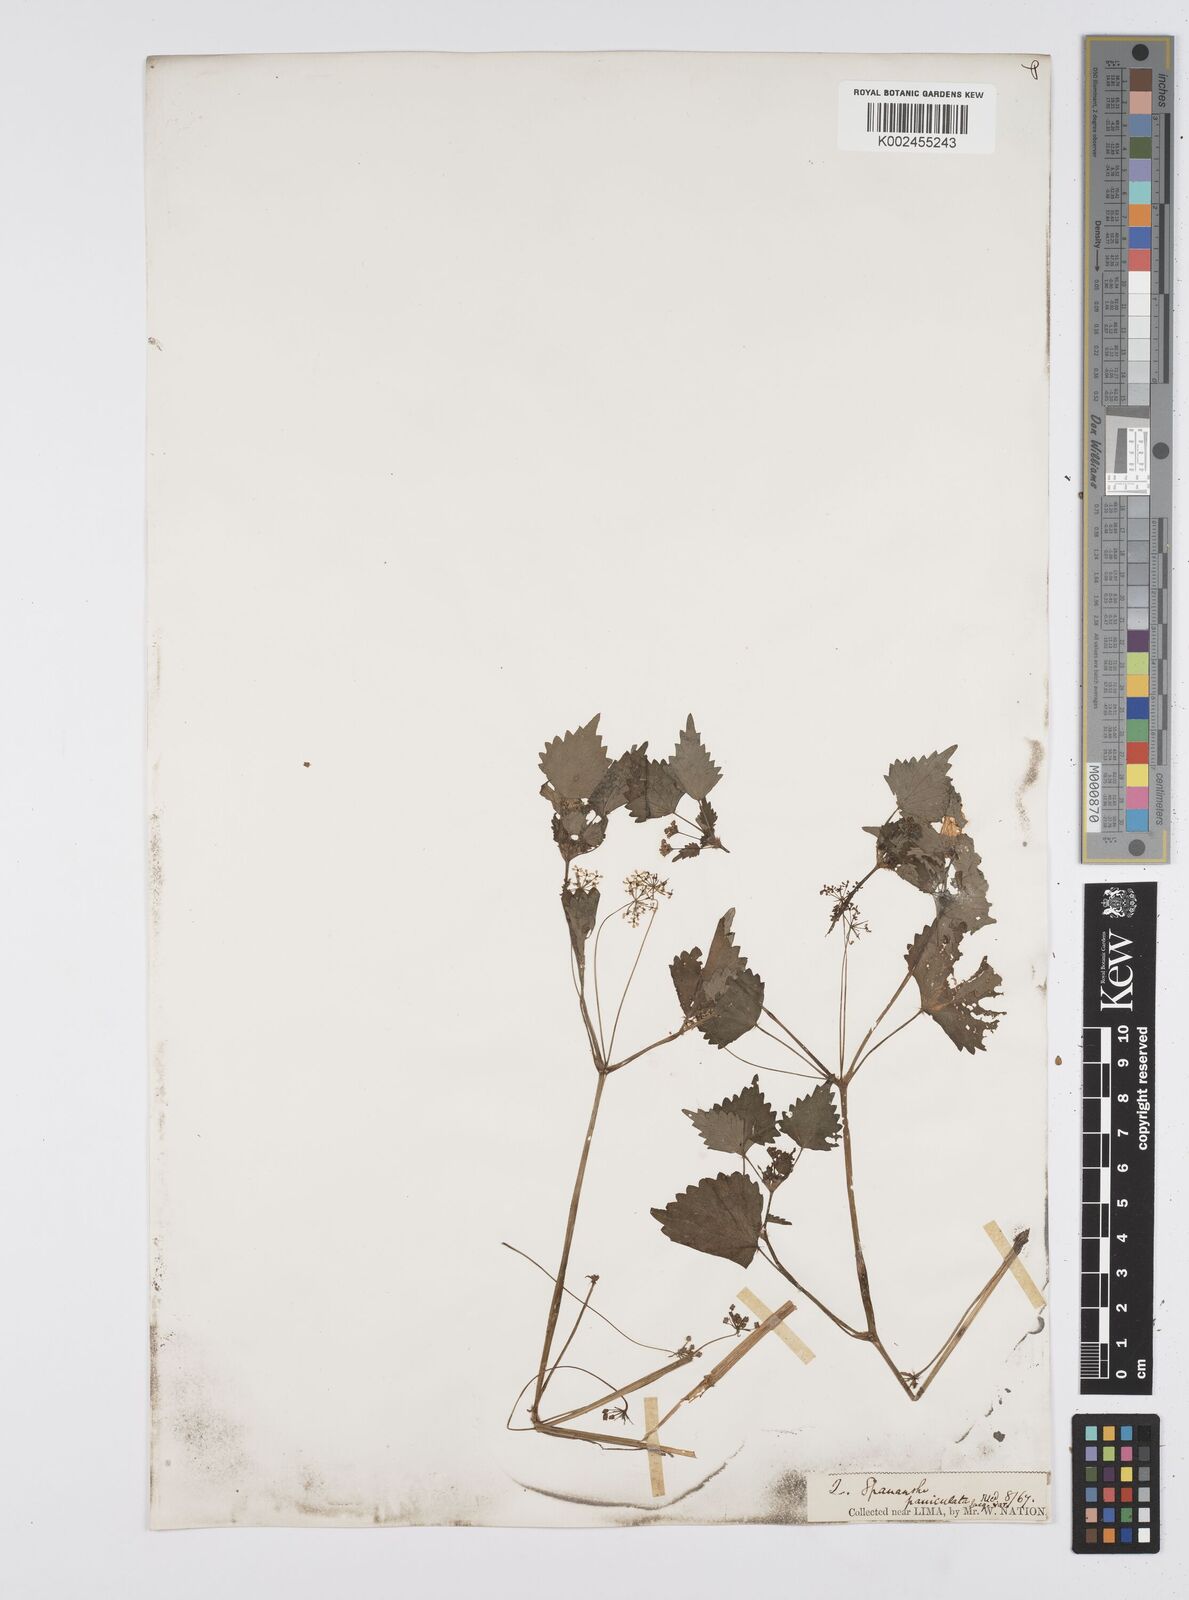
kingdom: Plantae
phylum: Tracheophyta
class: Magnoliopsida
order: Apiales
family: Apiaceae
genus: Azorella
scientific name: Azorella
